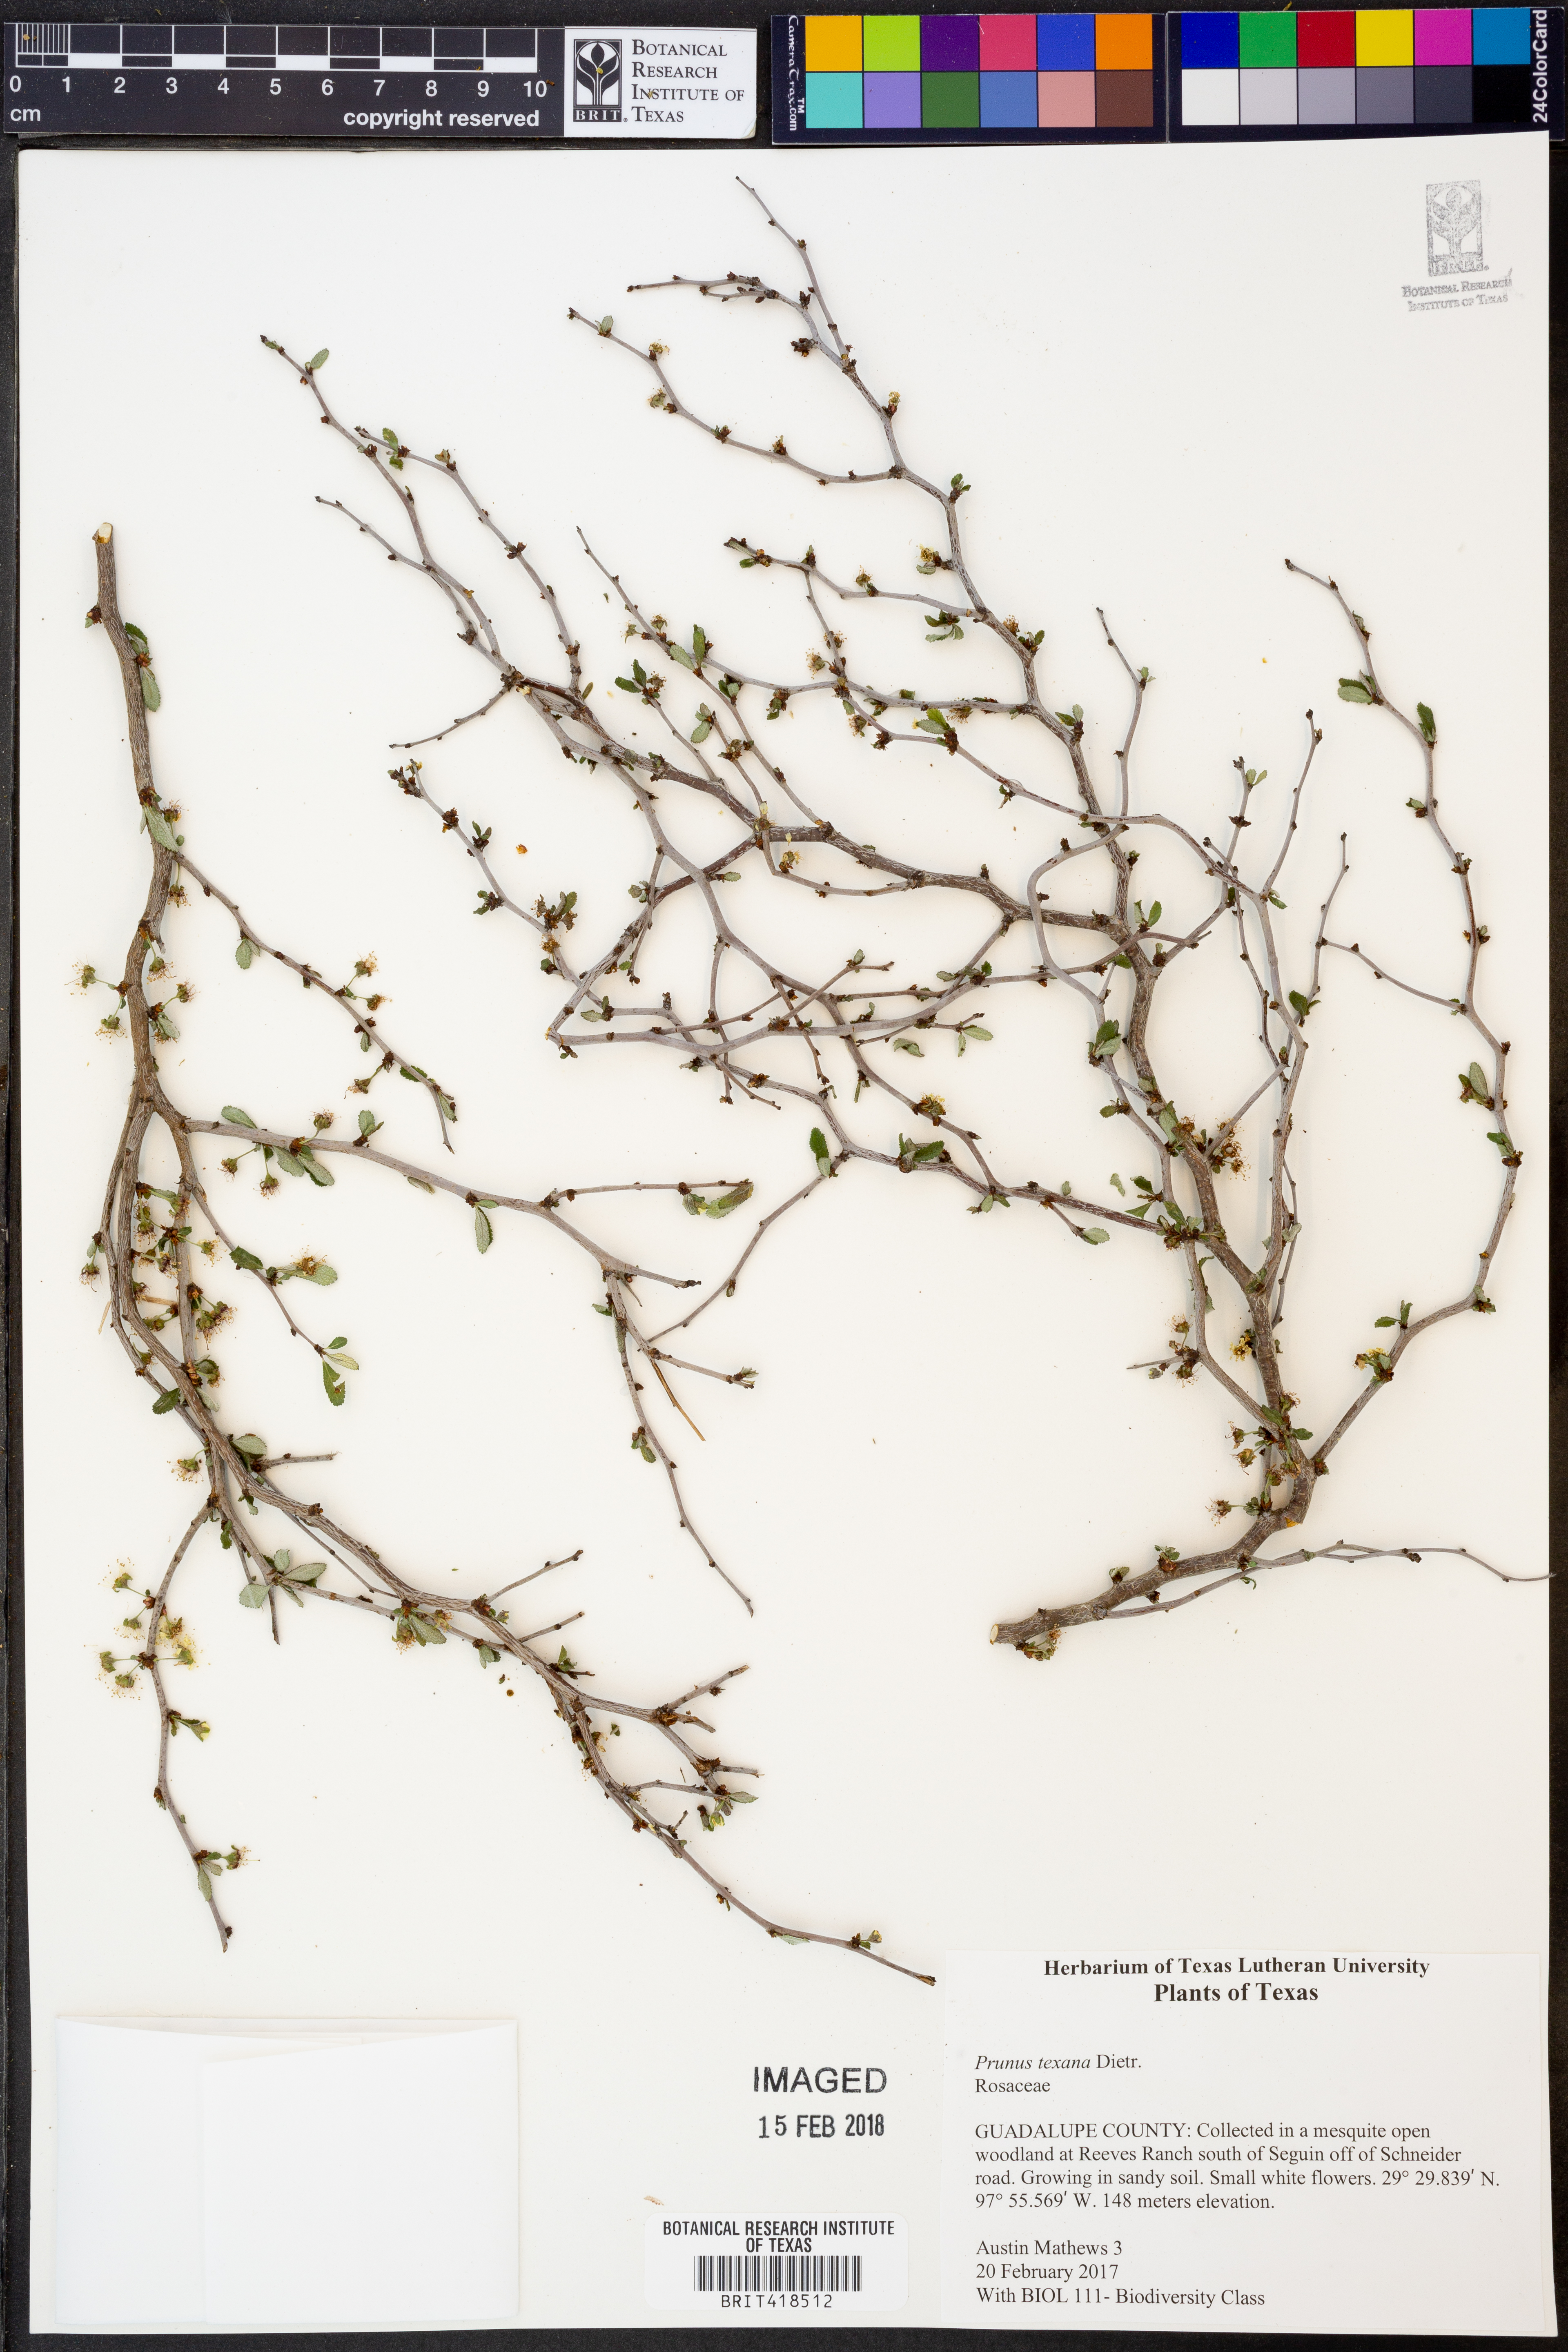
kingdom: Plantae
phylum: Tracheophyta
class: Magnoliopsida
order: Rosales
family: Rosaceae
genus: Prunus
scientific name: Prunus texana
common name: Texas almond cherry
